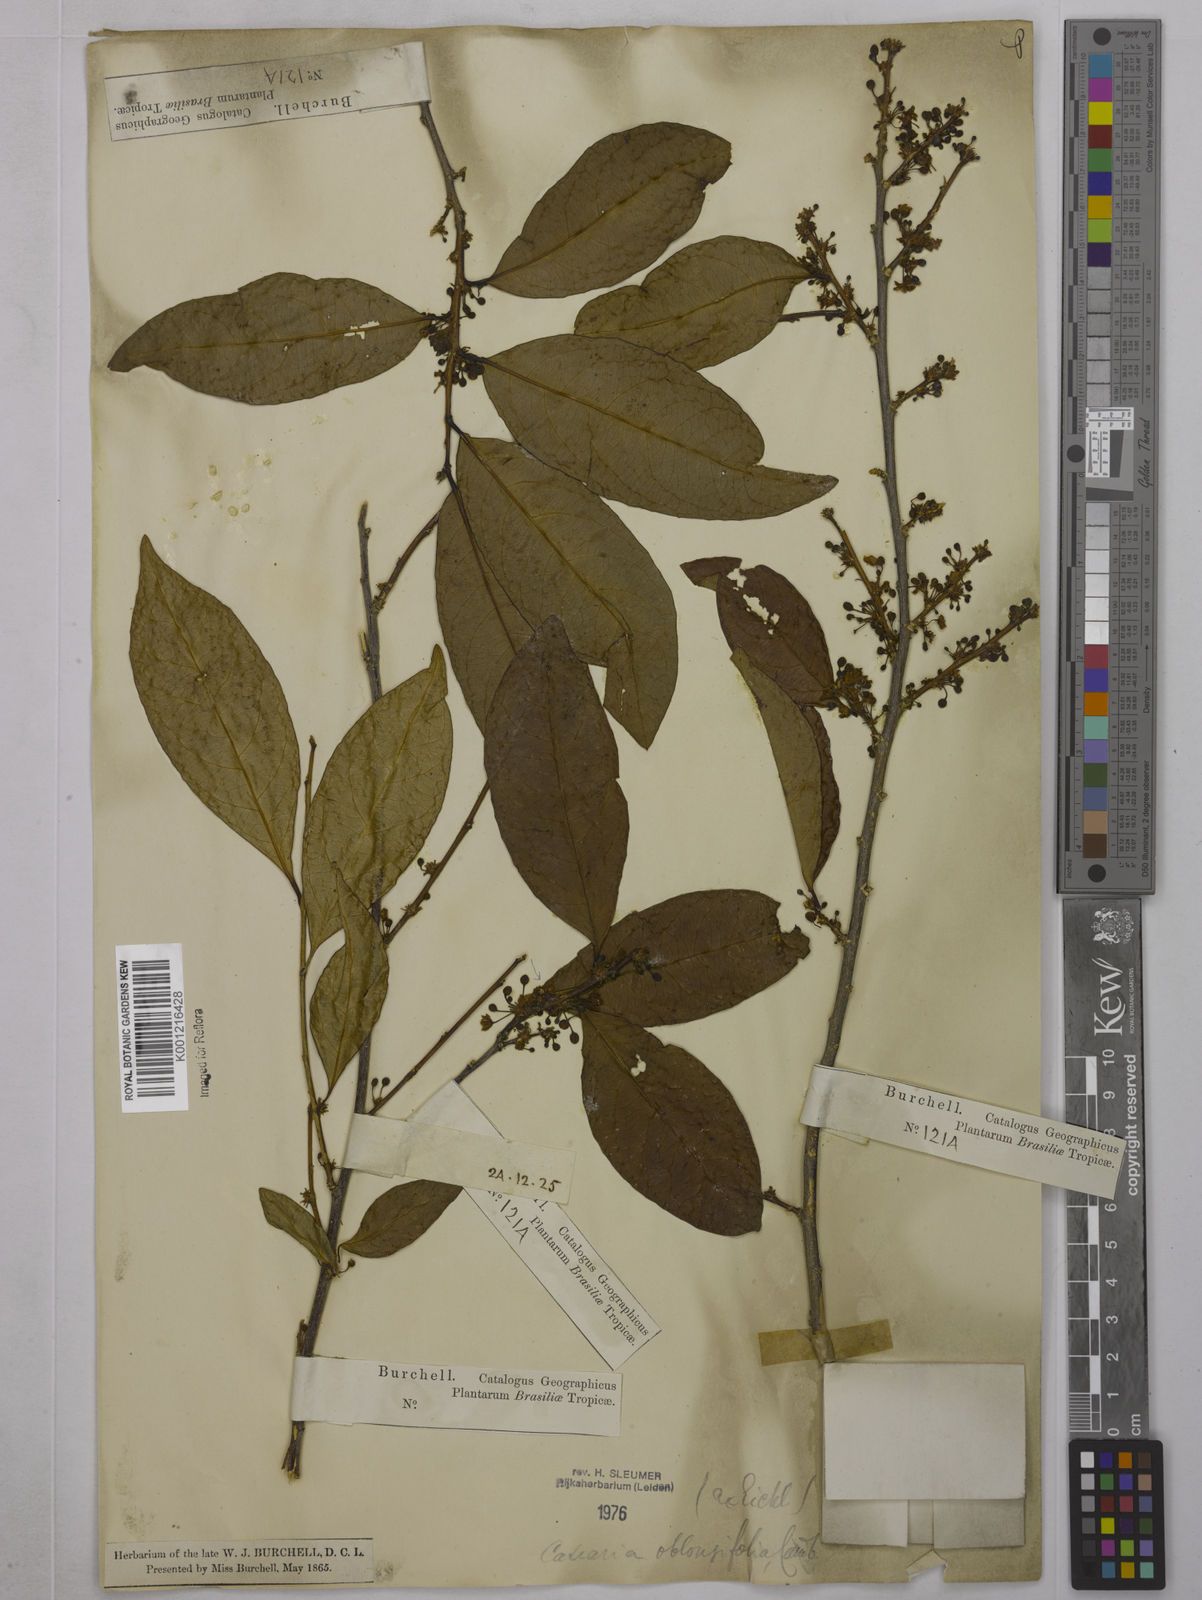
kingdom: Plantae
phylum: Tracheophyta
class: Magnoliopsida
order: Malpighiales
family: Salicaceae
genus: Casearia
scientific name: Casearia oblongifolia
